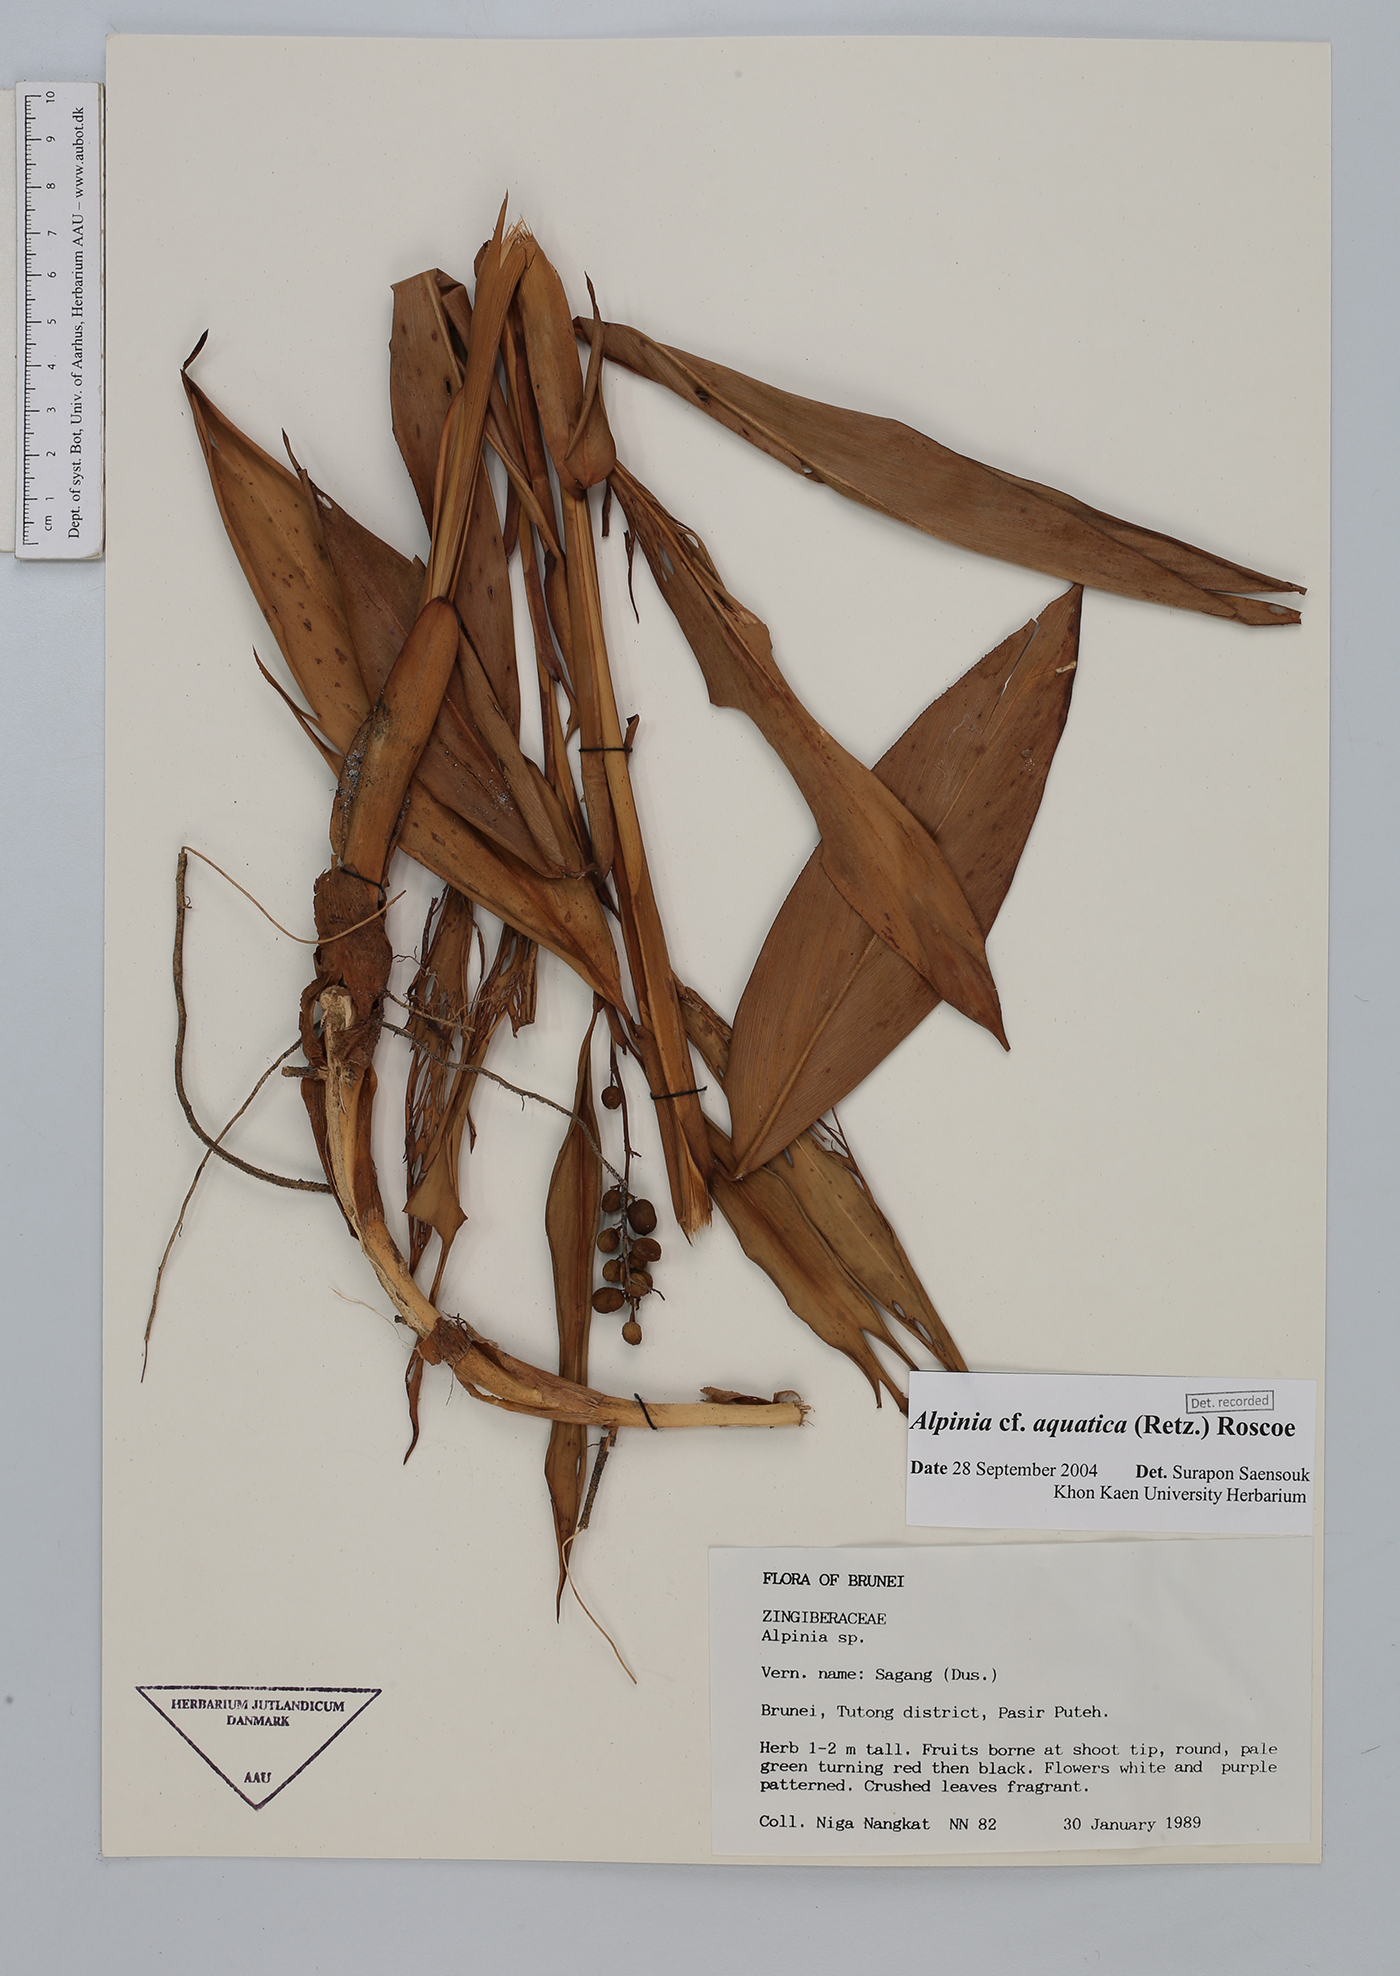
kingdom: Plantae
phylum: Tracheophyta
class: Liliopsida
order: Zingiberales
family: Zingiberaceae
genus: Alpinia
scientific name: Alpinia aquatica
